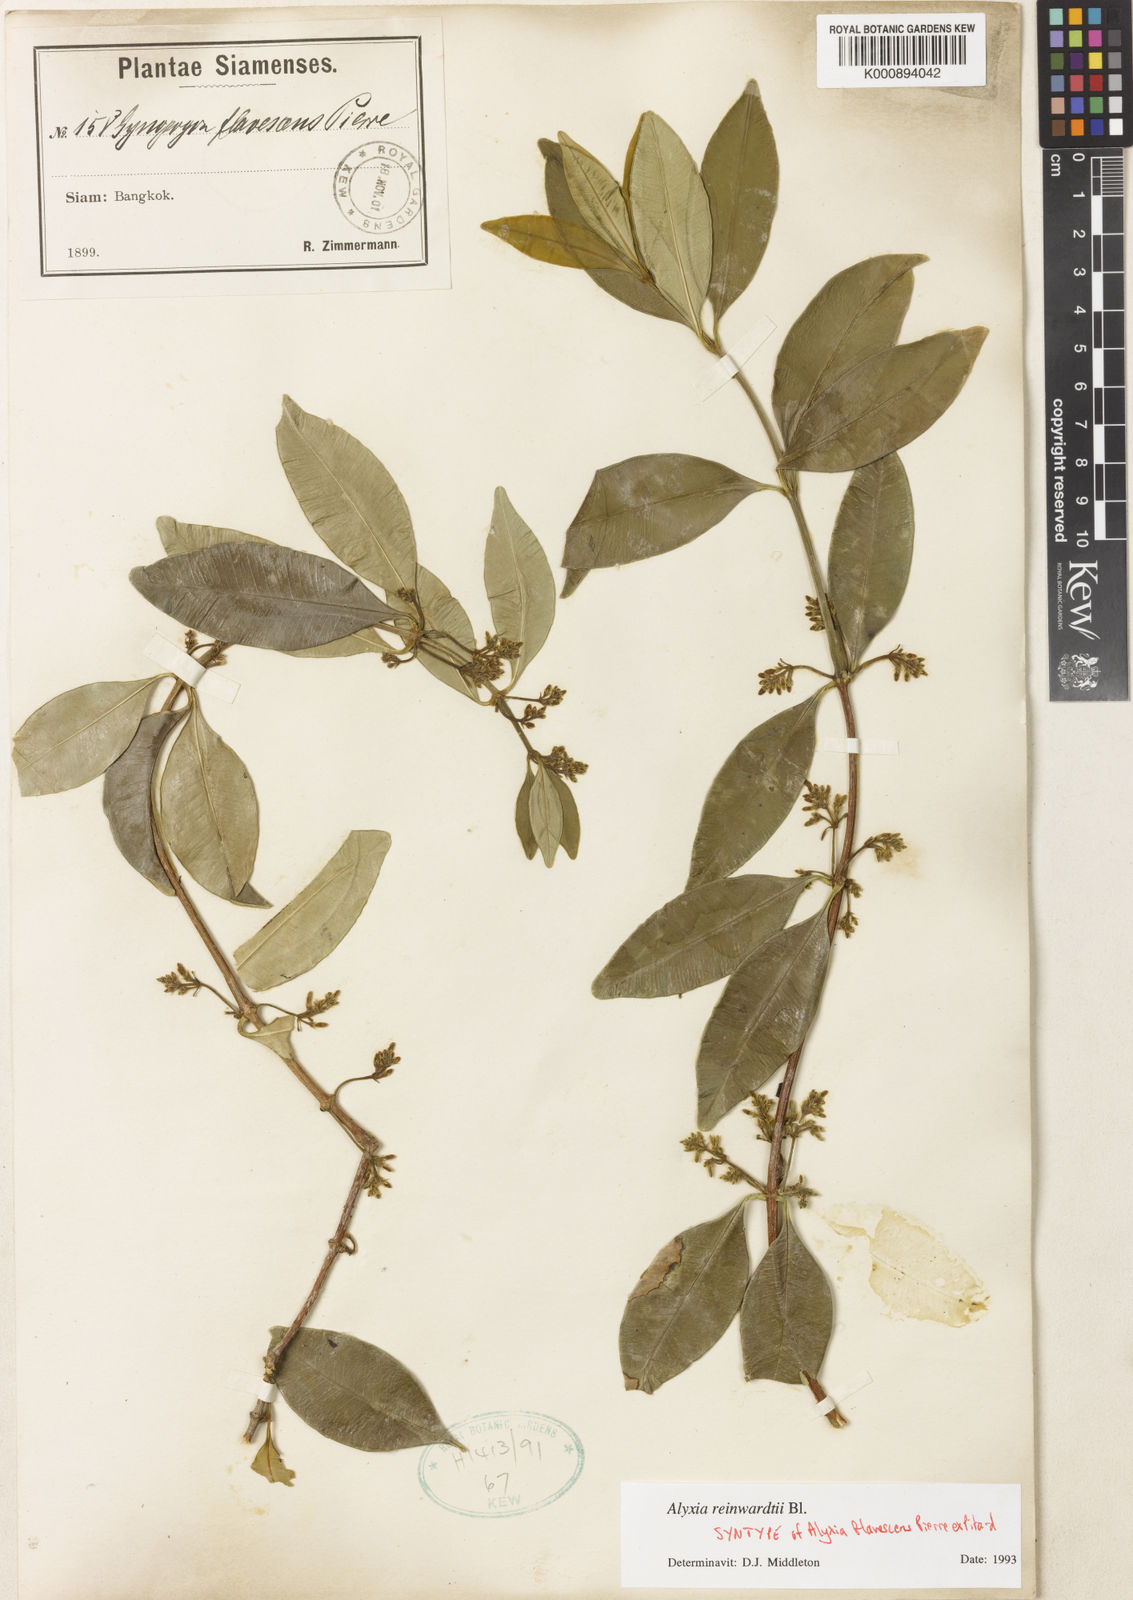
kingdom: Plantae
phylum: Tracheophyta
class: Magnoliopsida
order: Gentianales
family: Apocynaceae
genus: Alyxia
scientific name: Alyxia reinwardtii
